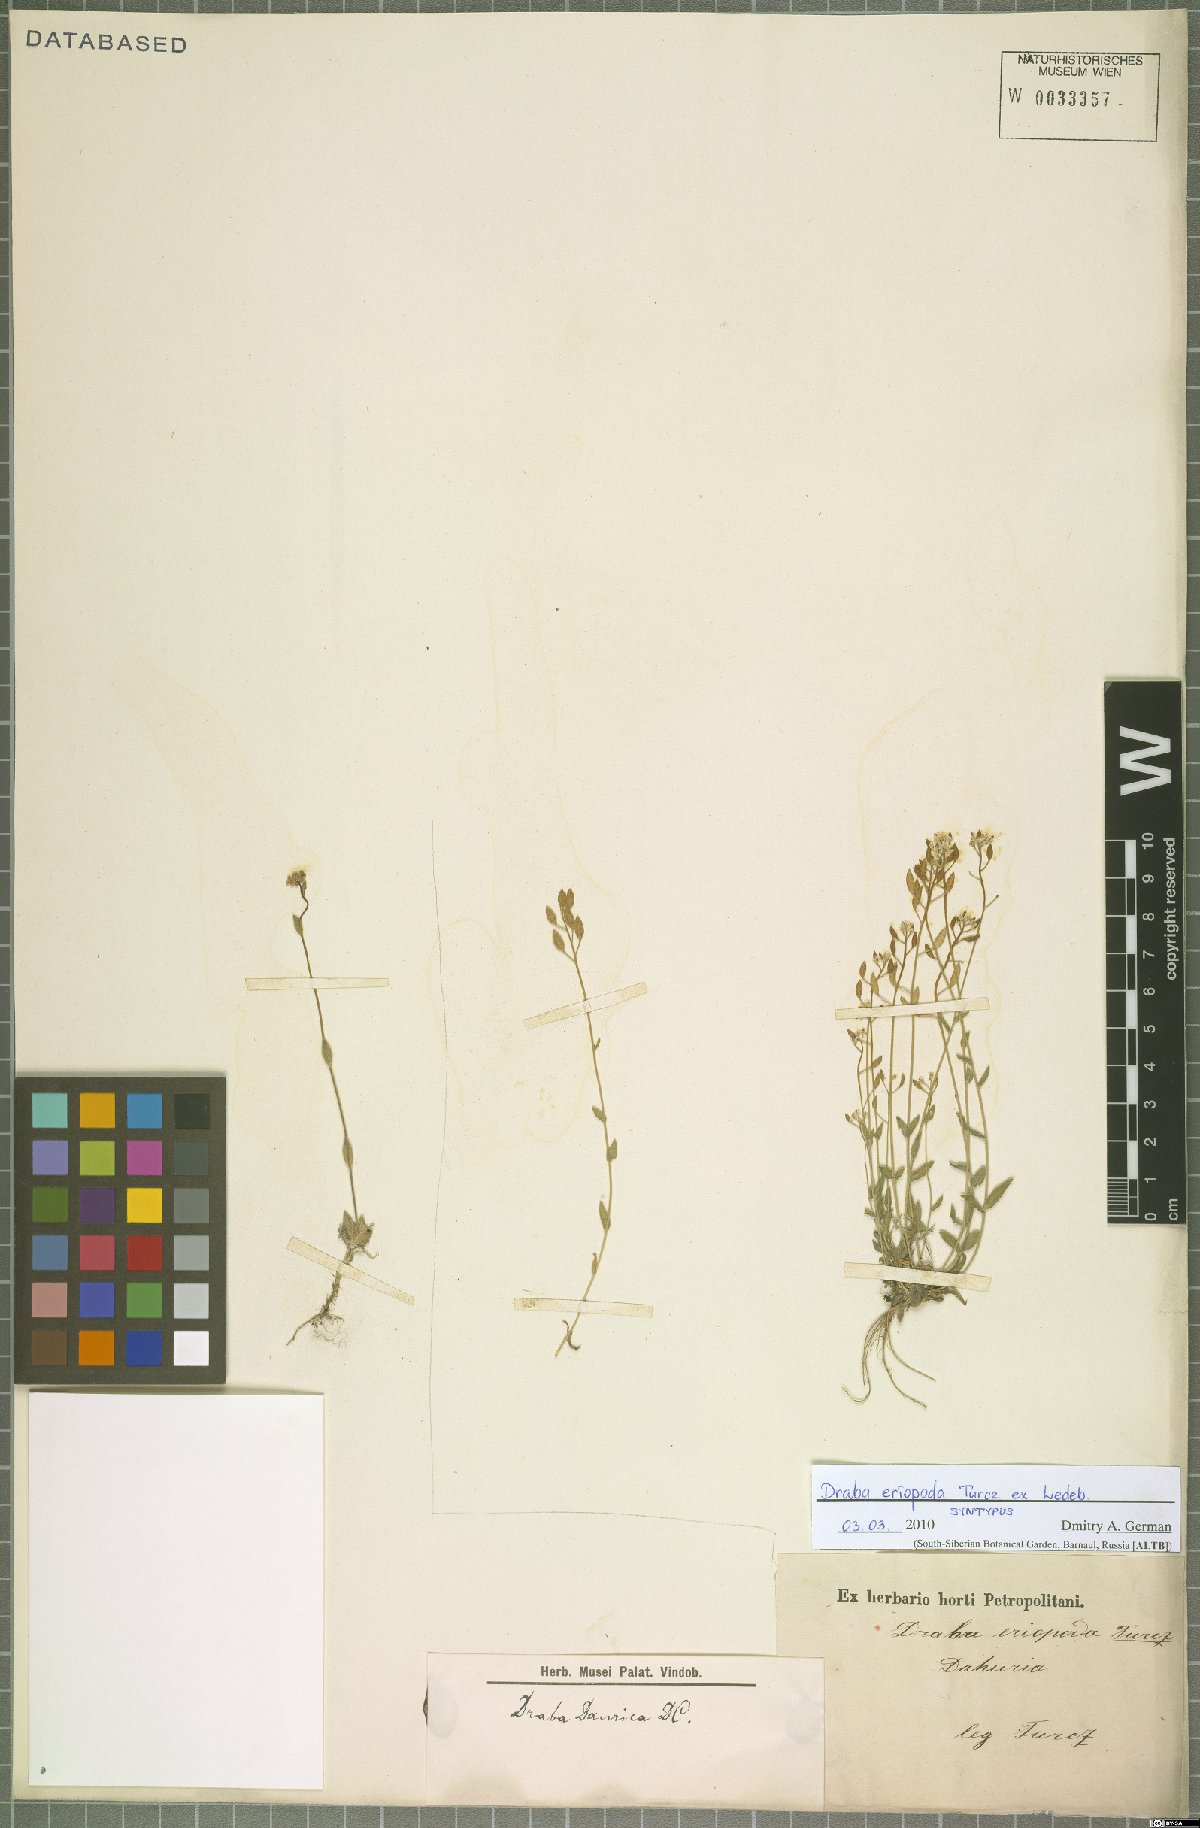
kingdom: Plantae
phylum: Tracheophyta
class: Magnoliopsida
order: Brassicales
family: Brassicaceae
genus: Draba
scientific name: Draba eriopoda
